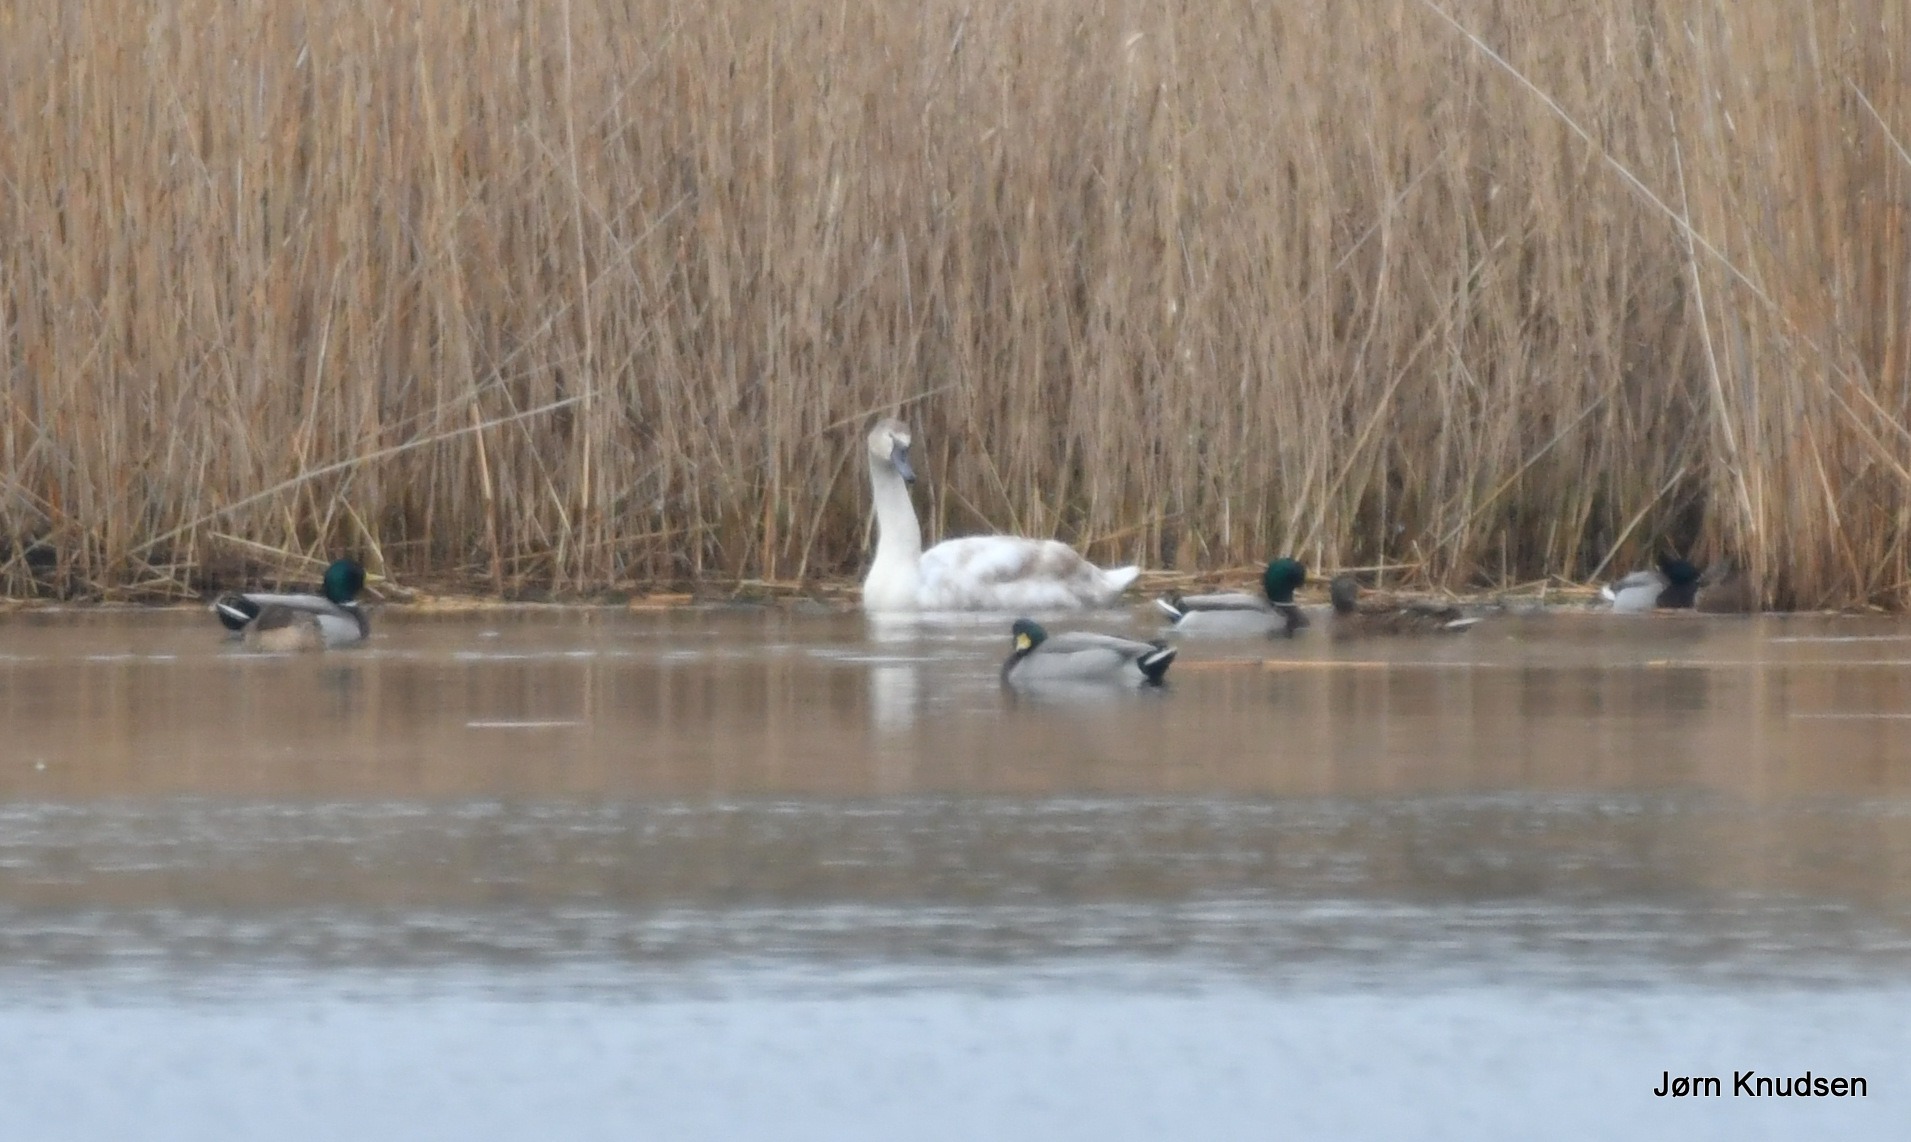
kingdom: Animalia
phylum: Chordata
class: Aves
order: Anseriformes
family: Anatidae
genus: Cygnus
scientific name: Cygnus olor
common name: Knopsvane
